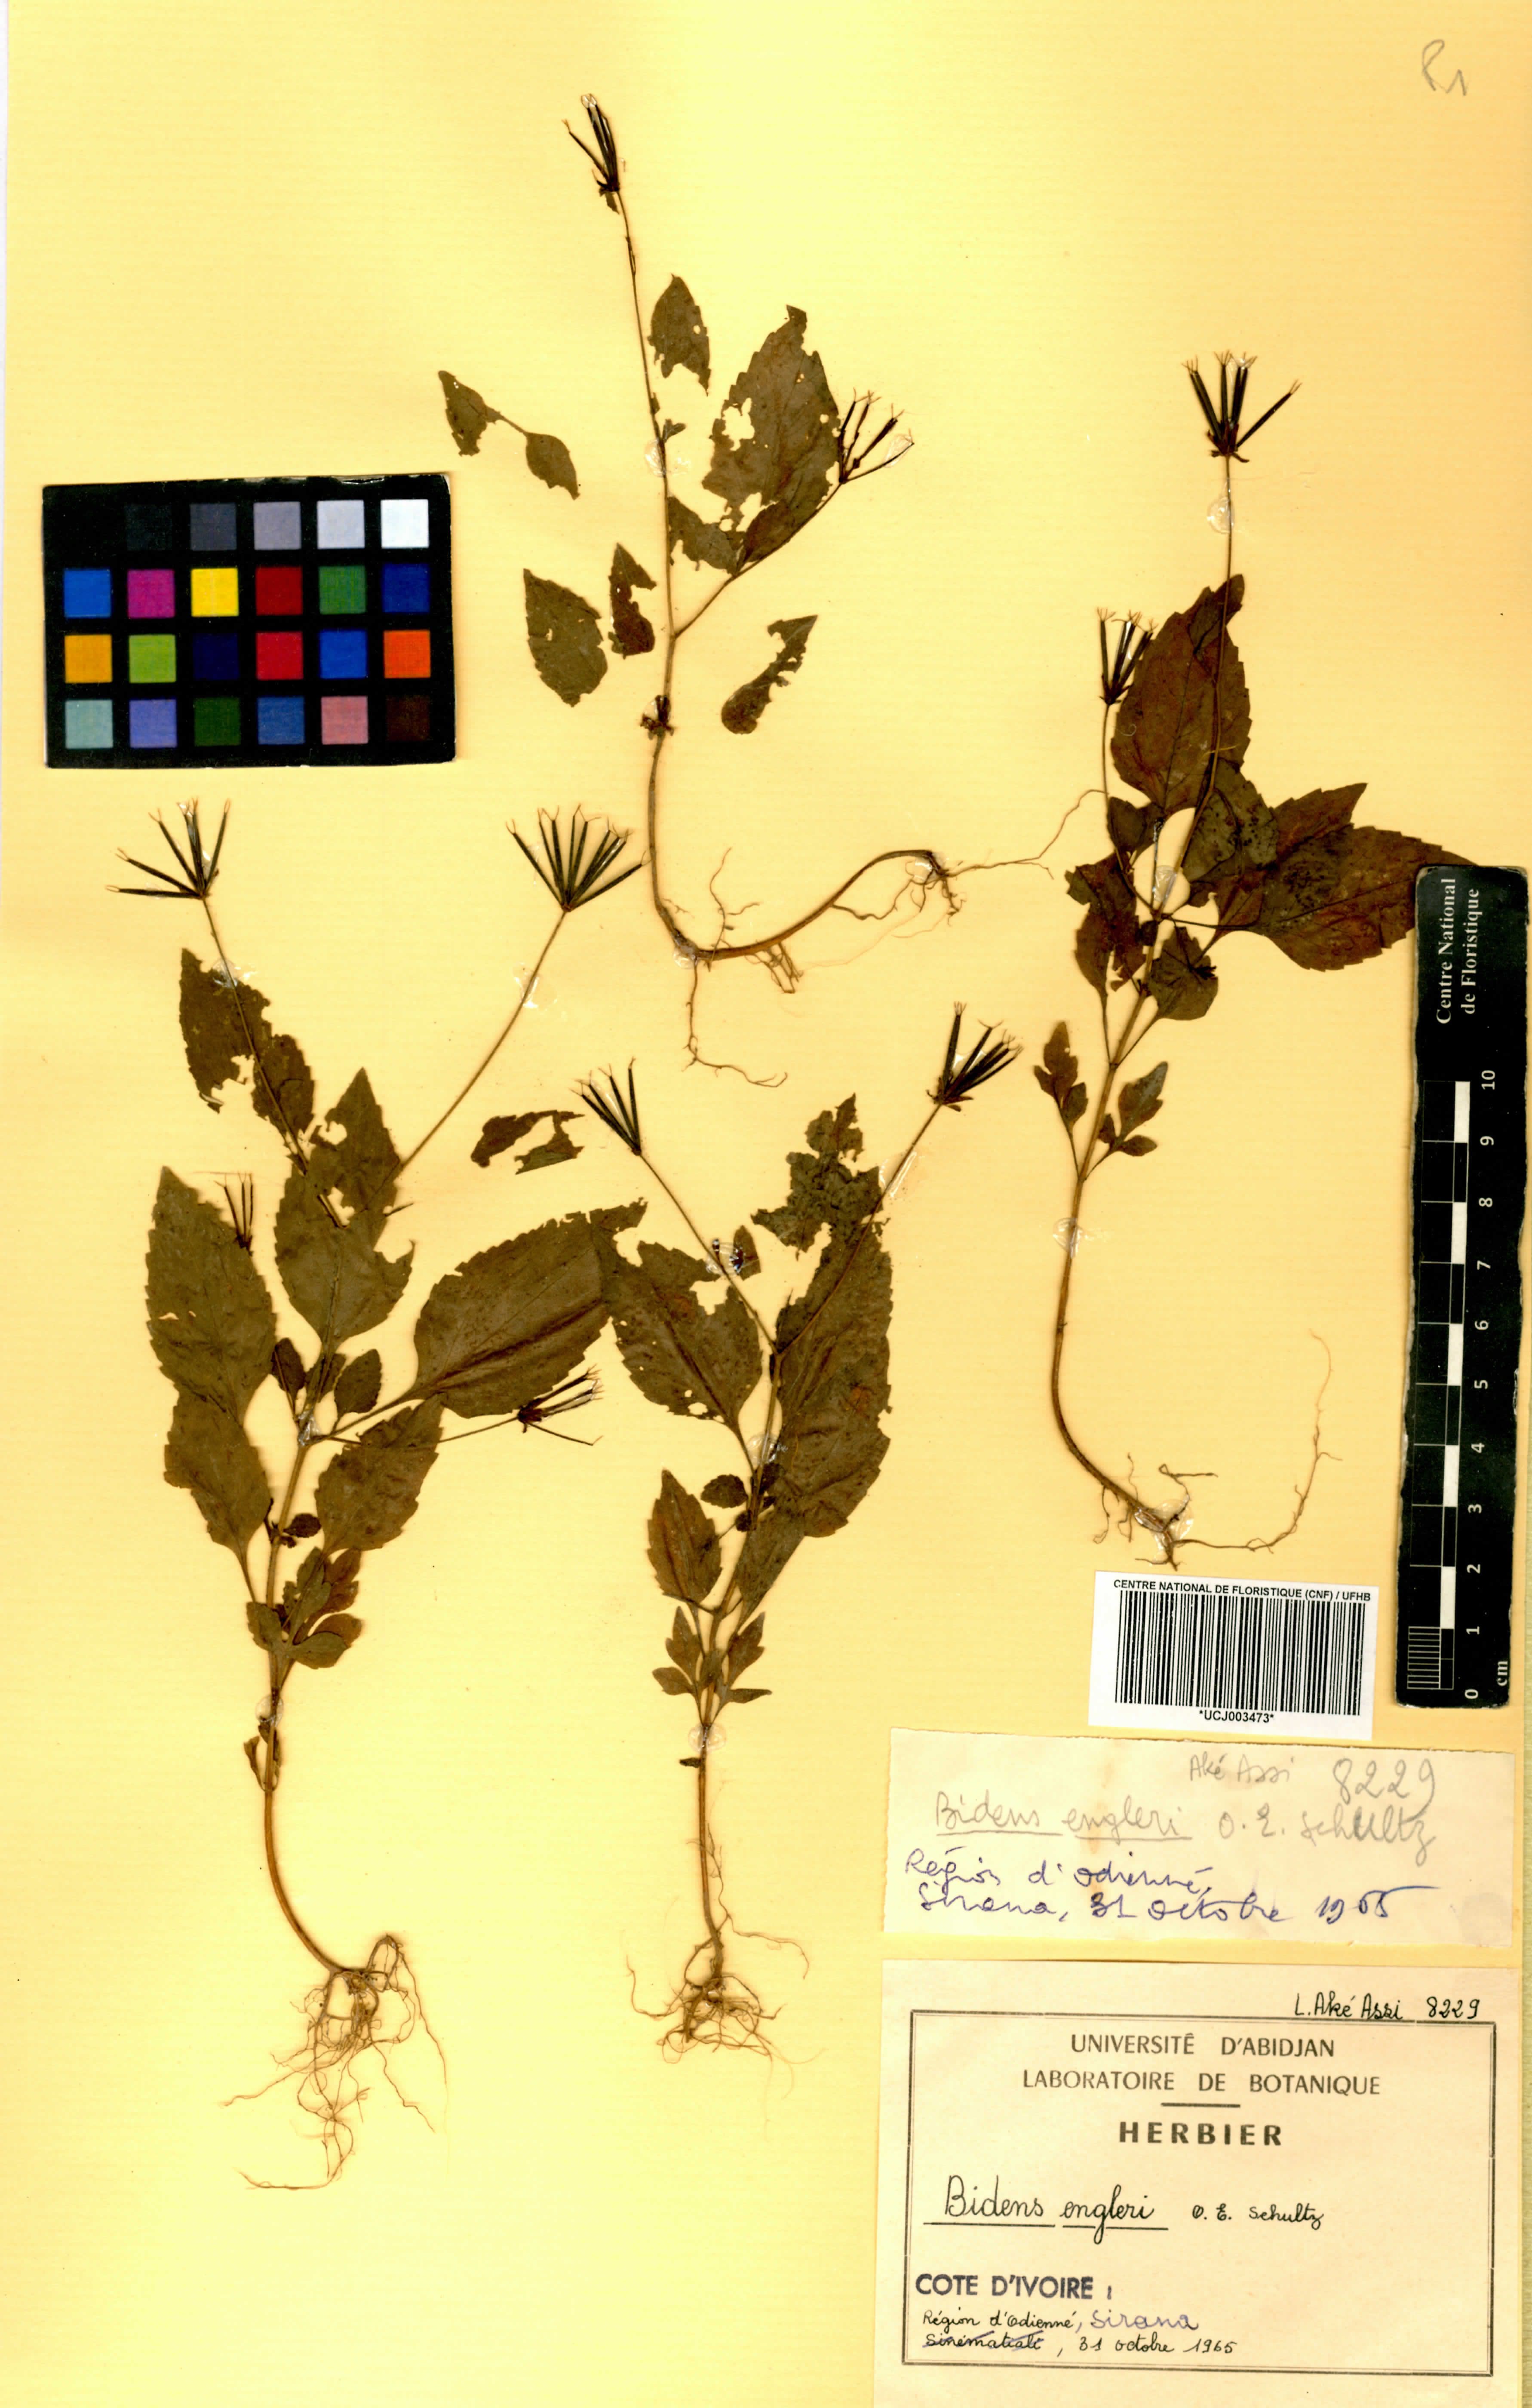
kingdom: Plantae
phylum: Tracheophyta
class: Magnoliopsida
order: Asterales
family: Asteraceae
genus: Bidens
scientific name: Bidens engleri
